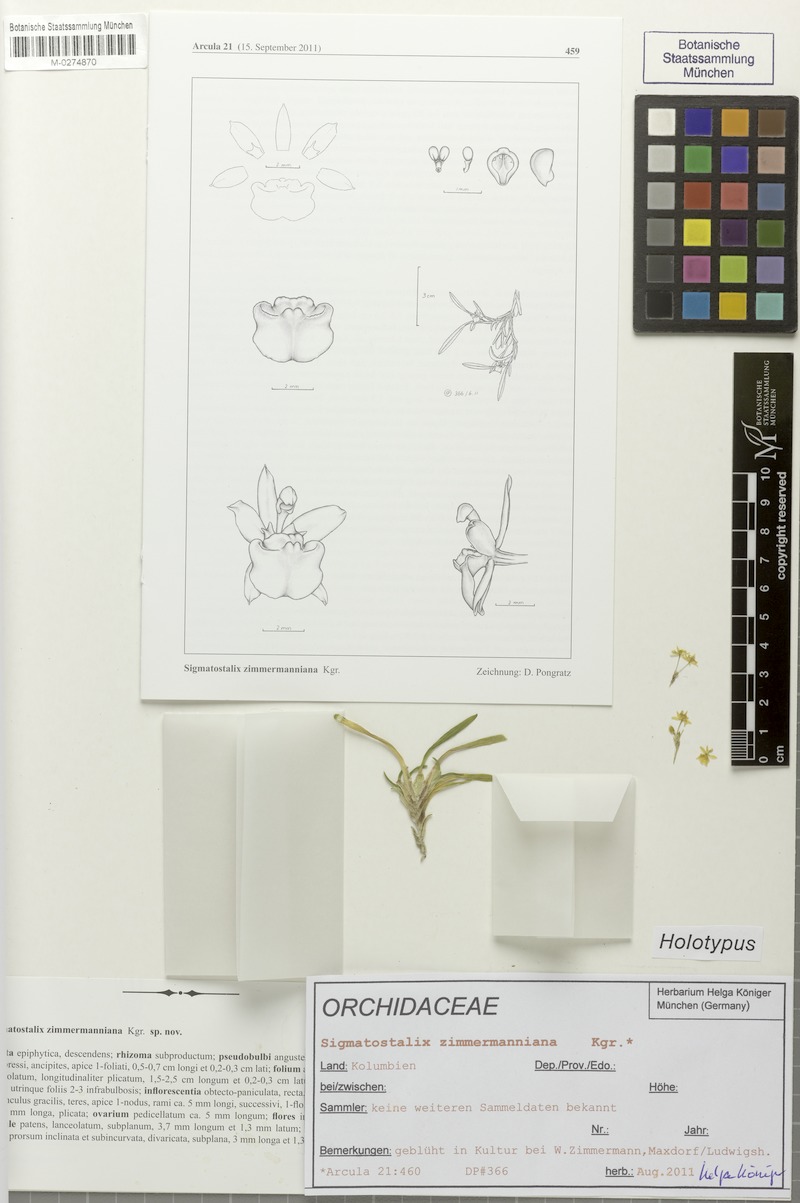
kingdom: Plantae
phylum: Tracheophyta
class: Liliopsida
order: Asparagales
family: Orchidaceae
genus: Oncidium
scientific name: Oncidium zimmermanniana
